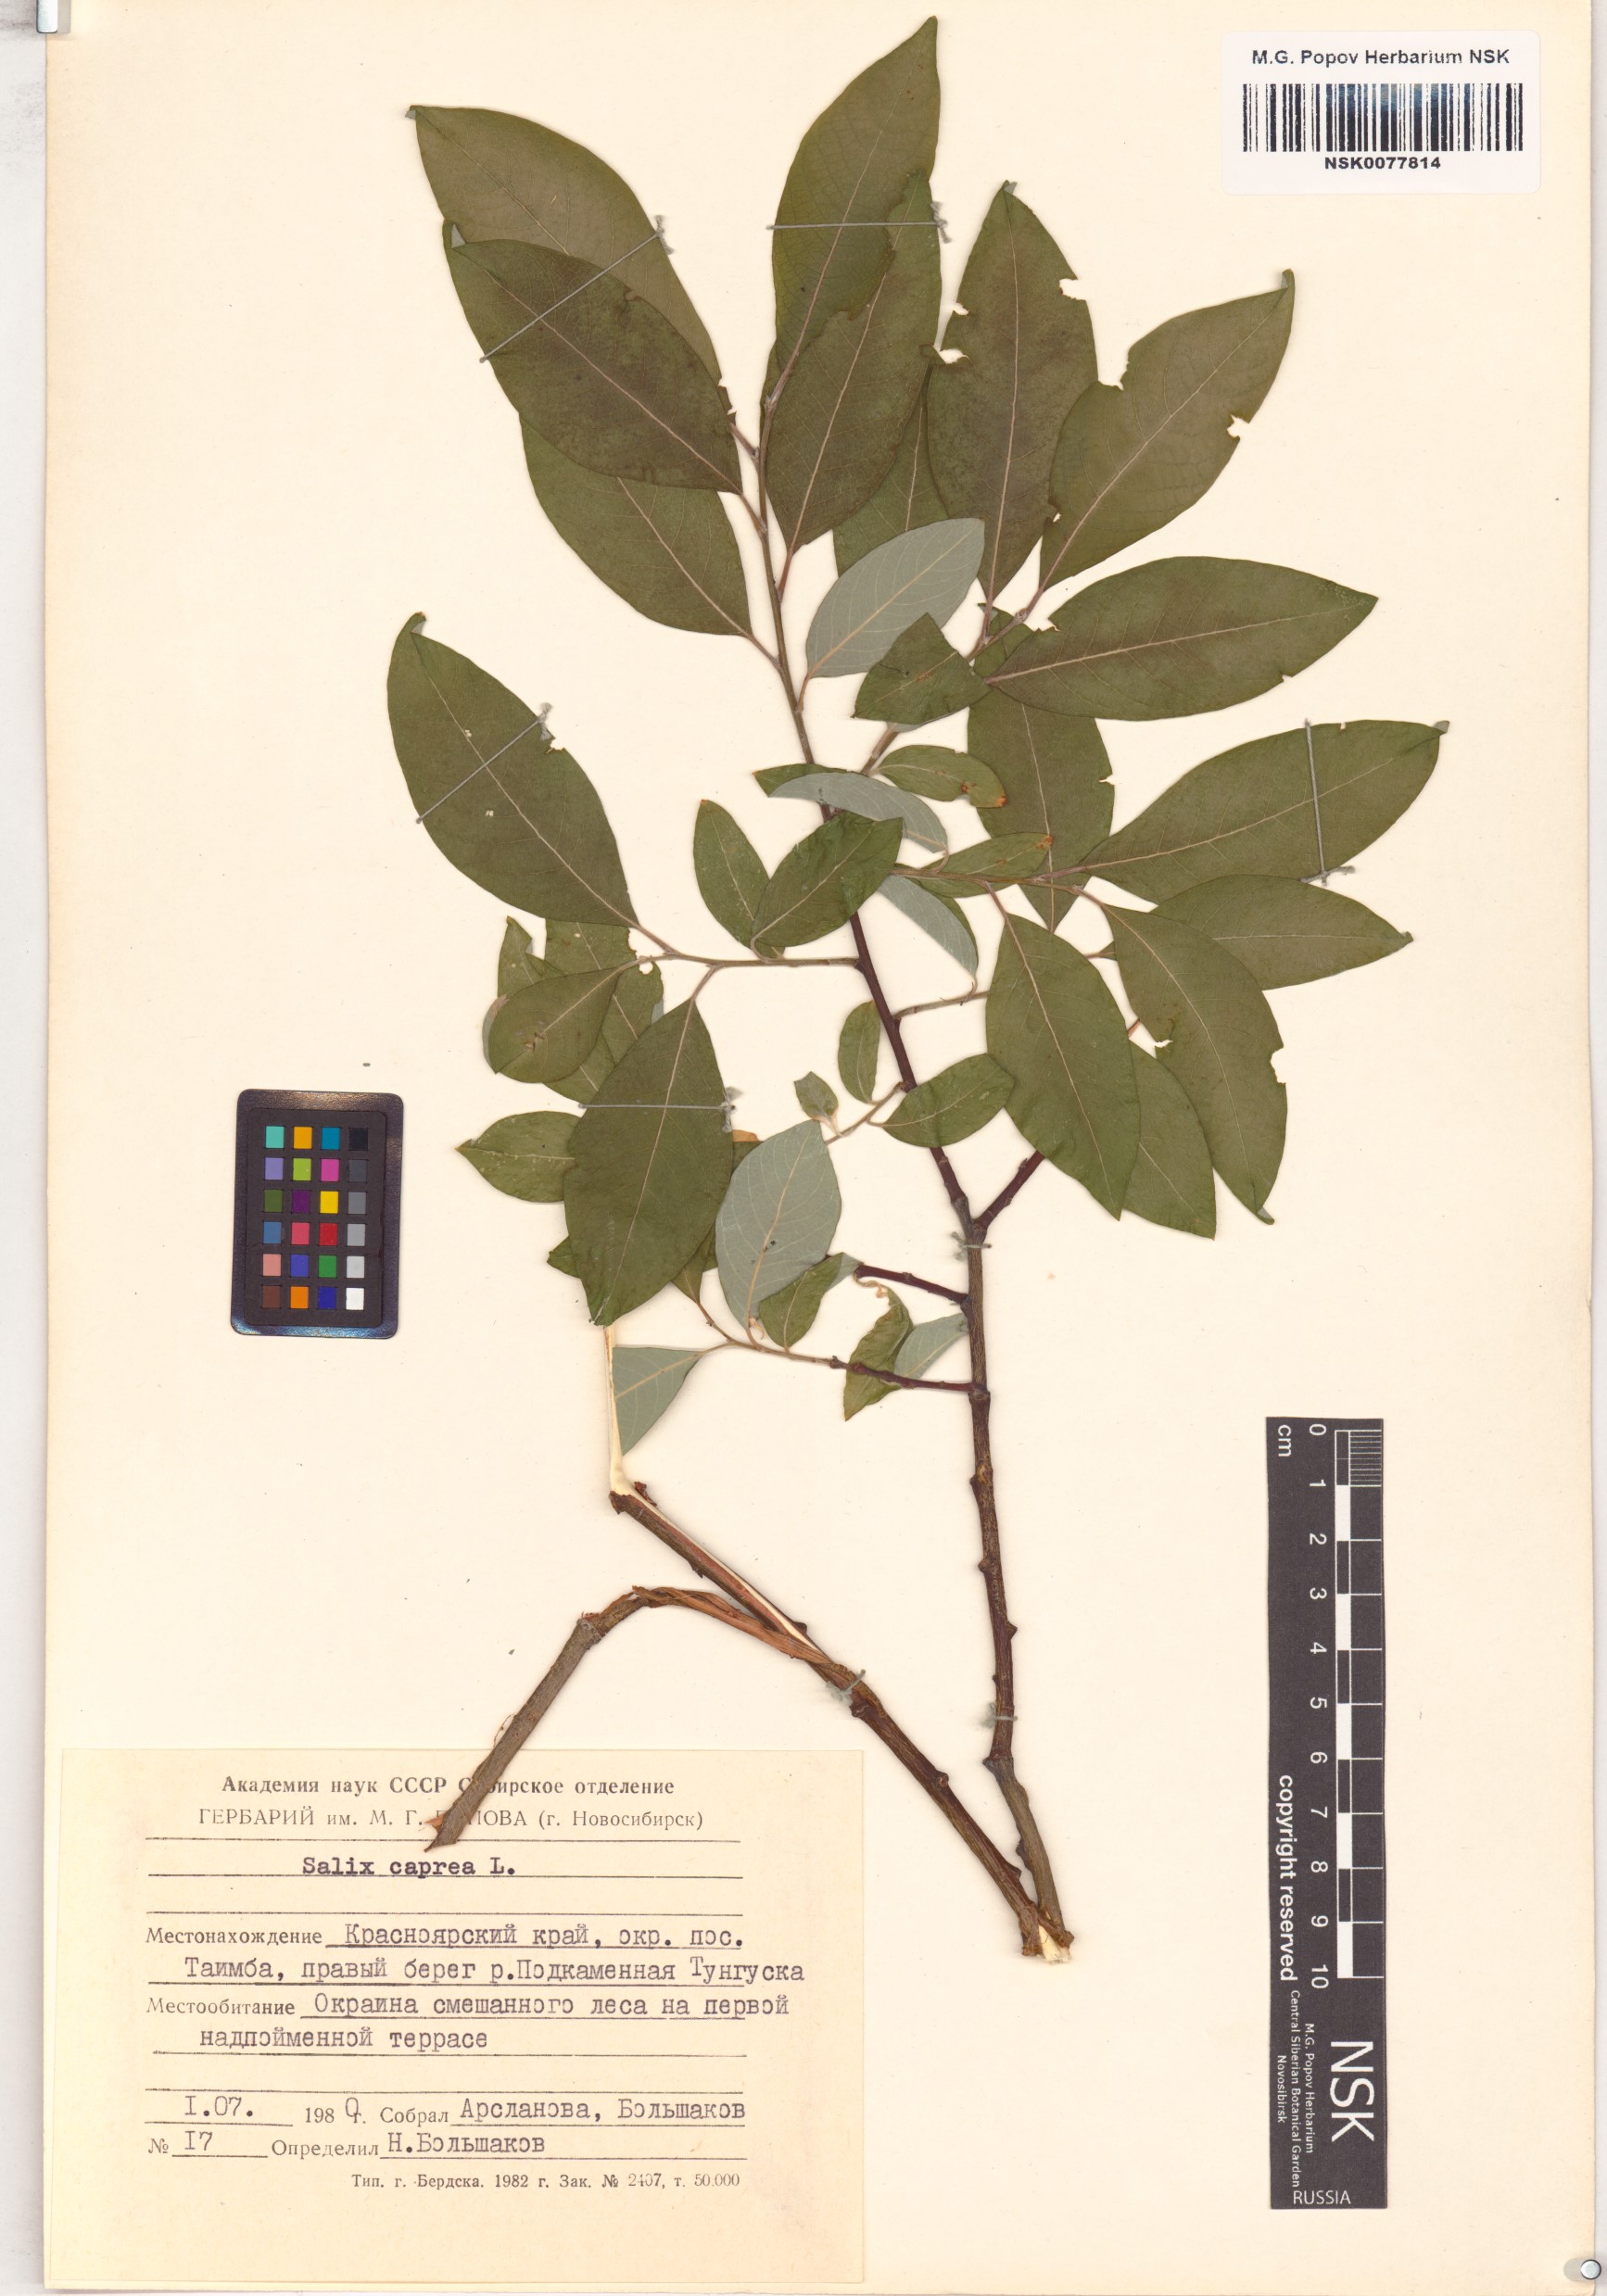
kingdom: Plantae
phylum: Tracheophyta
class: Magnoliopsida
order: Malpighiales
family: Salicaceae
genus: Salix
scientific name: Salix caprea
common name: Goat willow
